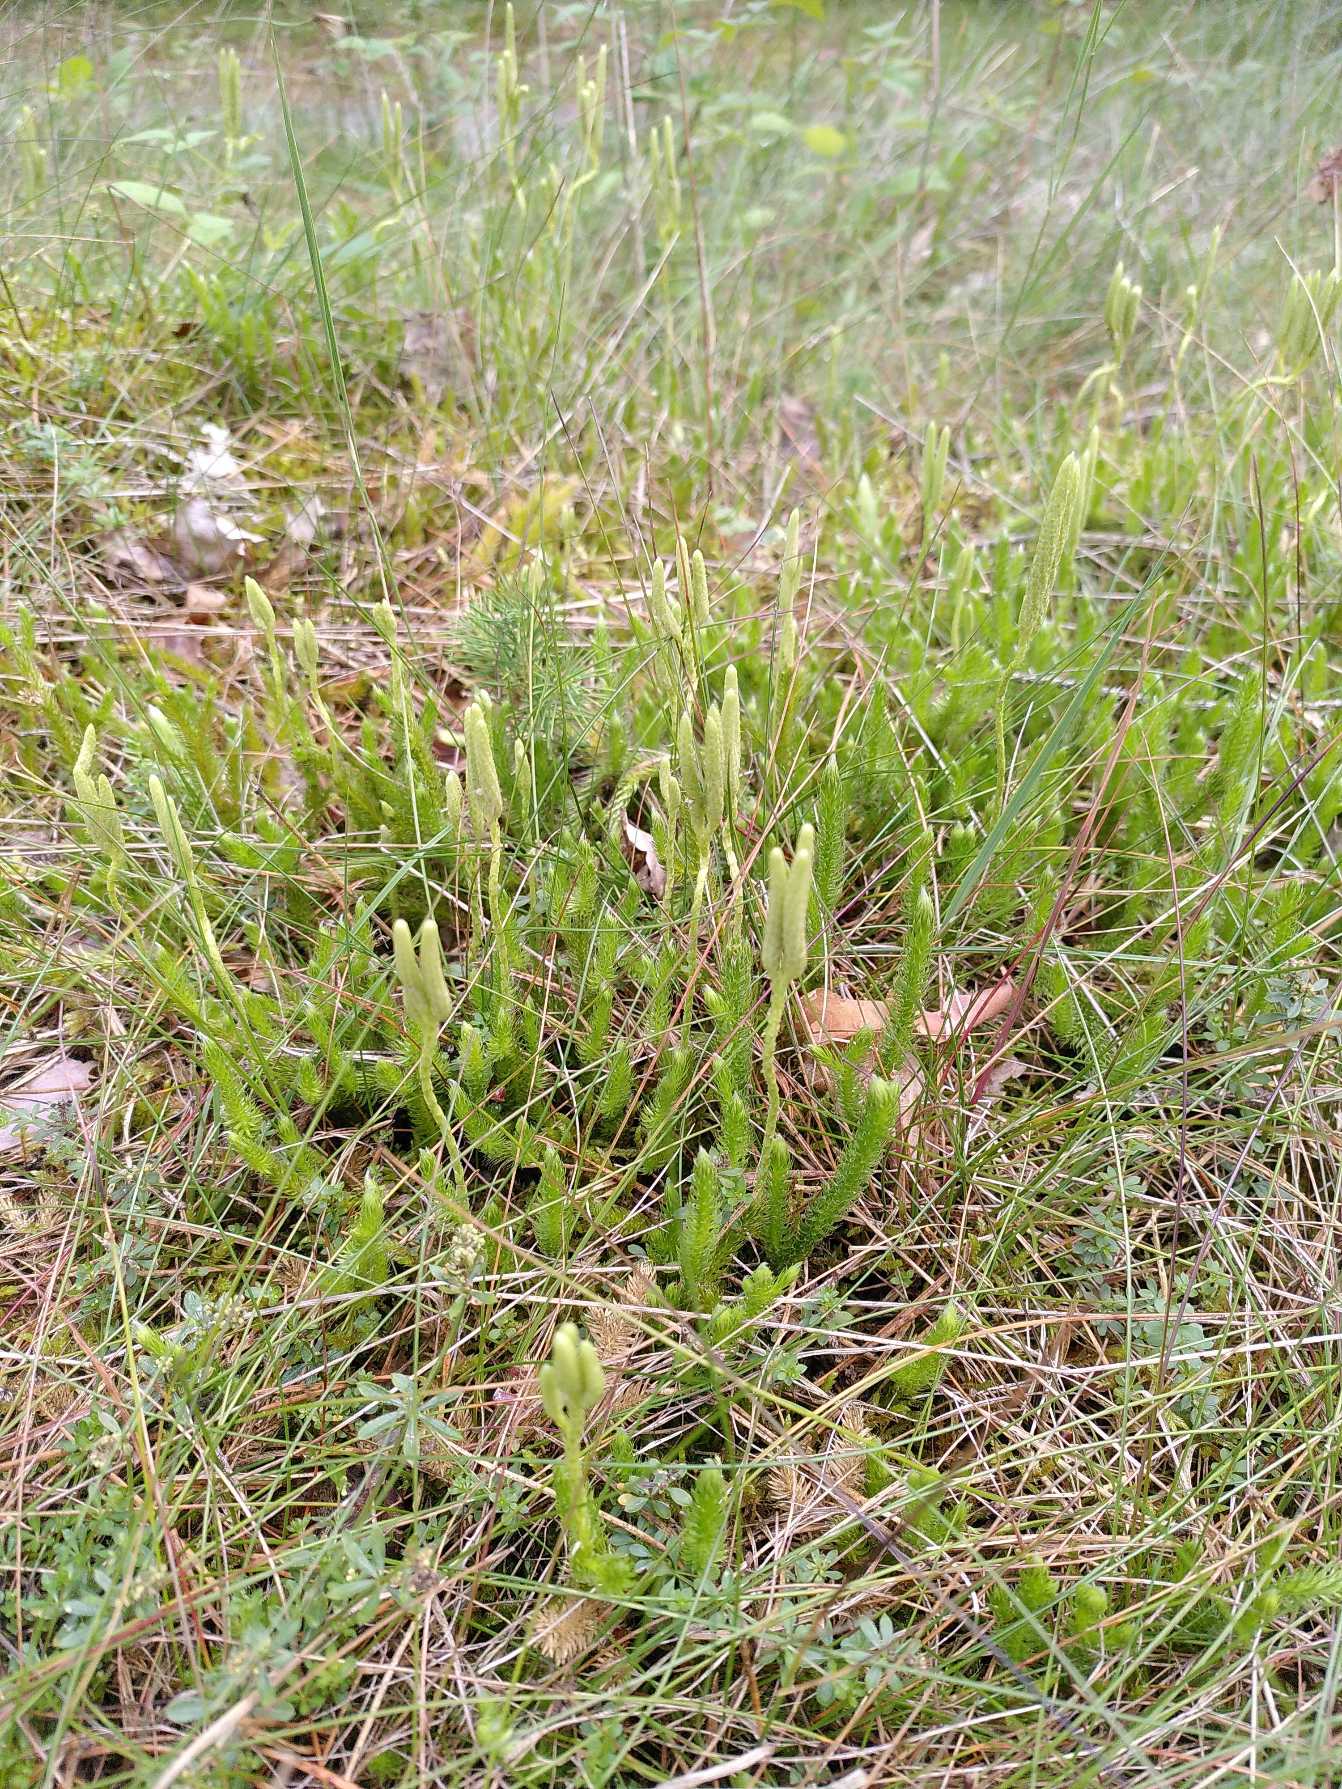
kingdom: Plantae
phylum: Tracheophyta
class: Lycopodiopsida
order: Lycopodiales
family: Lycopodiaceae
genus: Lycopodium
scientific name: Lycopodium clavatum
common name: Almindelig ulvefod
